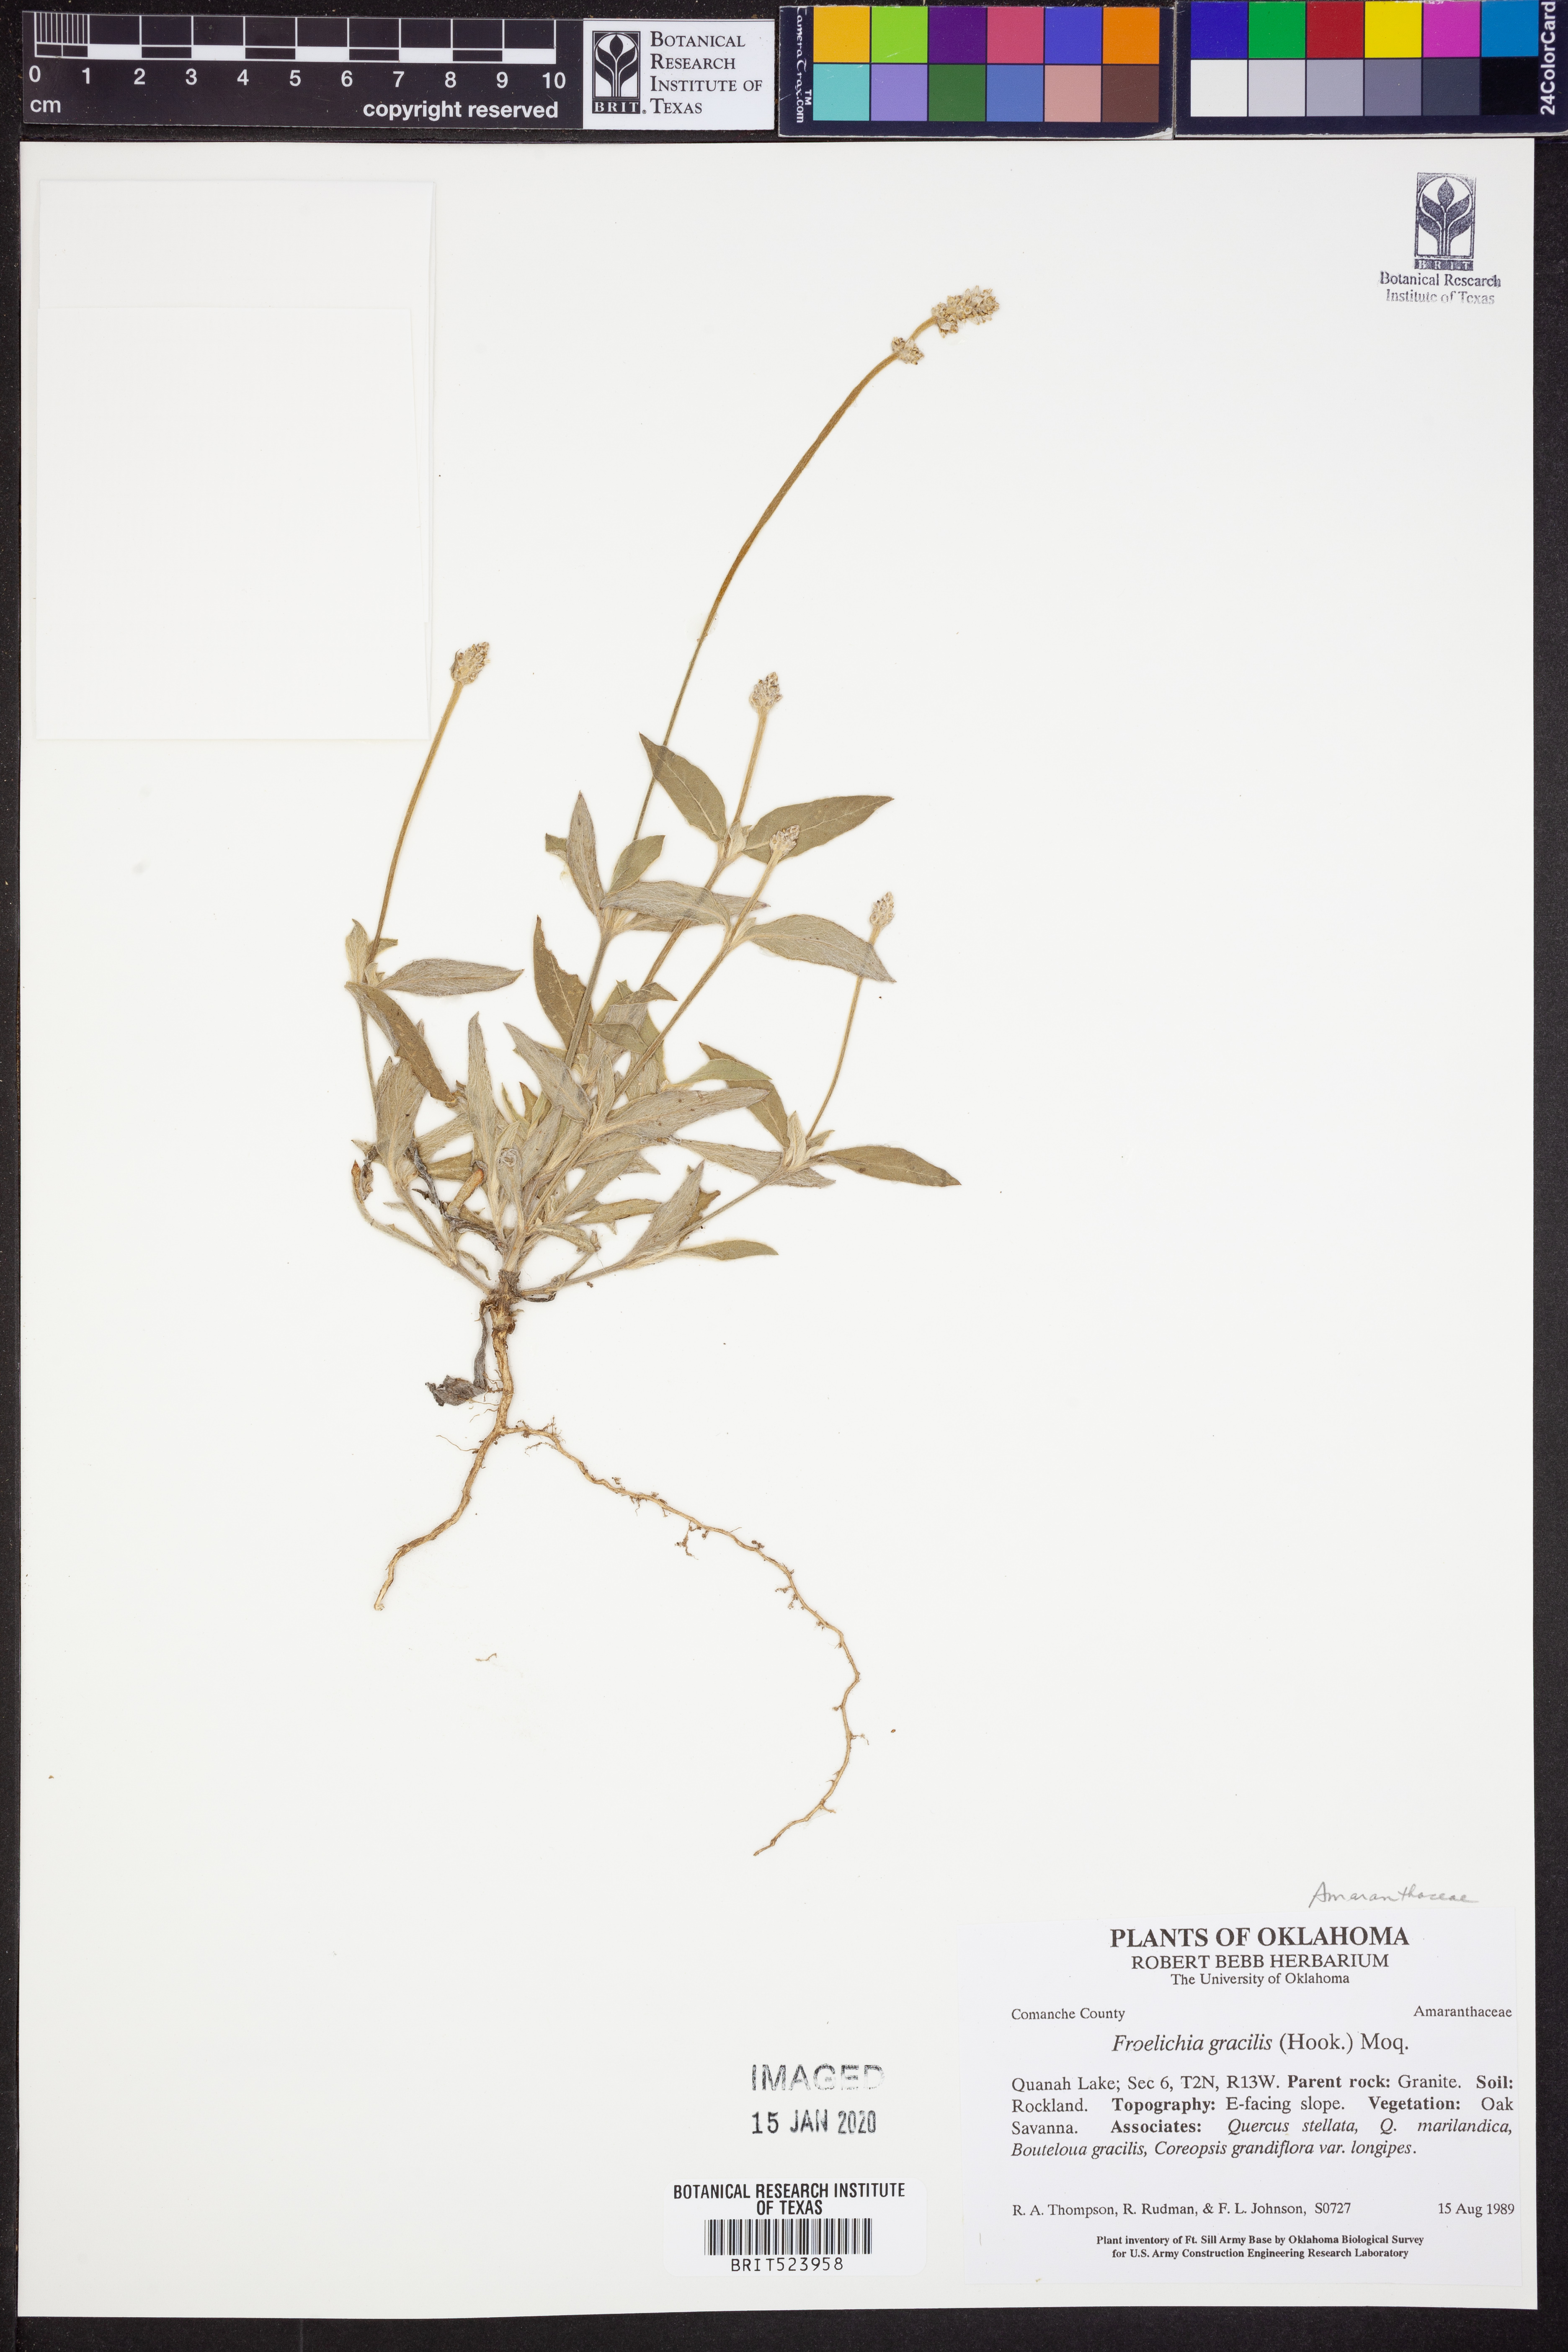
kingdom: Plantae
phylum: Tracheophyta
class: Magnoliopsida
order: Caryophyllales
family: Amaranthaceae
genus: Froelichia
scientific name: Froelichia gracilis
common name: Slender cottonweed
